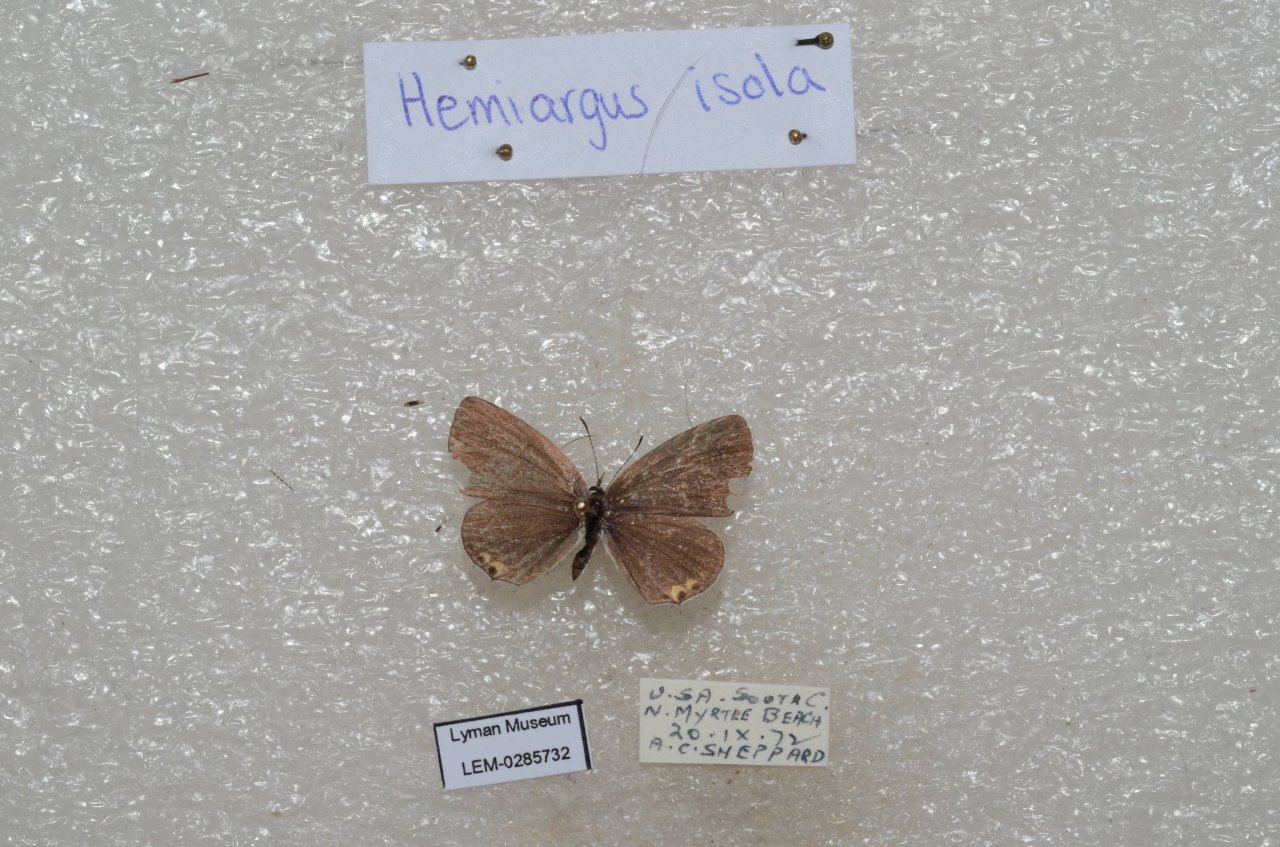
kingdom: Animalia
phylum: Arthropoda
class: Insecta
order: Lepidoptera
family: Lycaenidae
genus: Elkalyce
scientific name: Elkalyce comyntas
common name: Eastern Tailed-Blue
